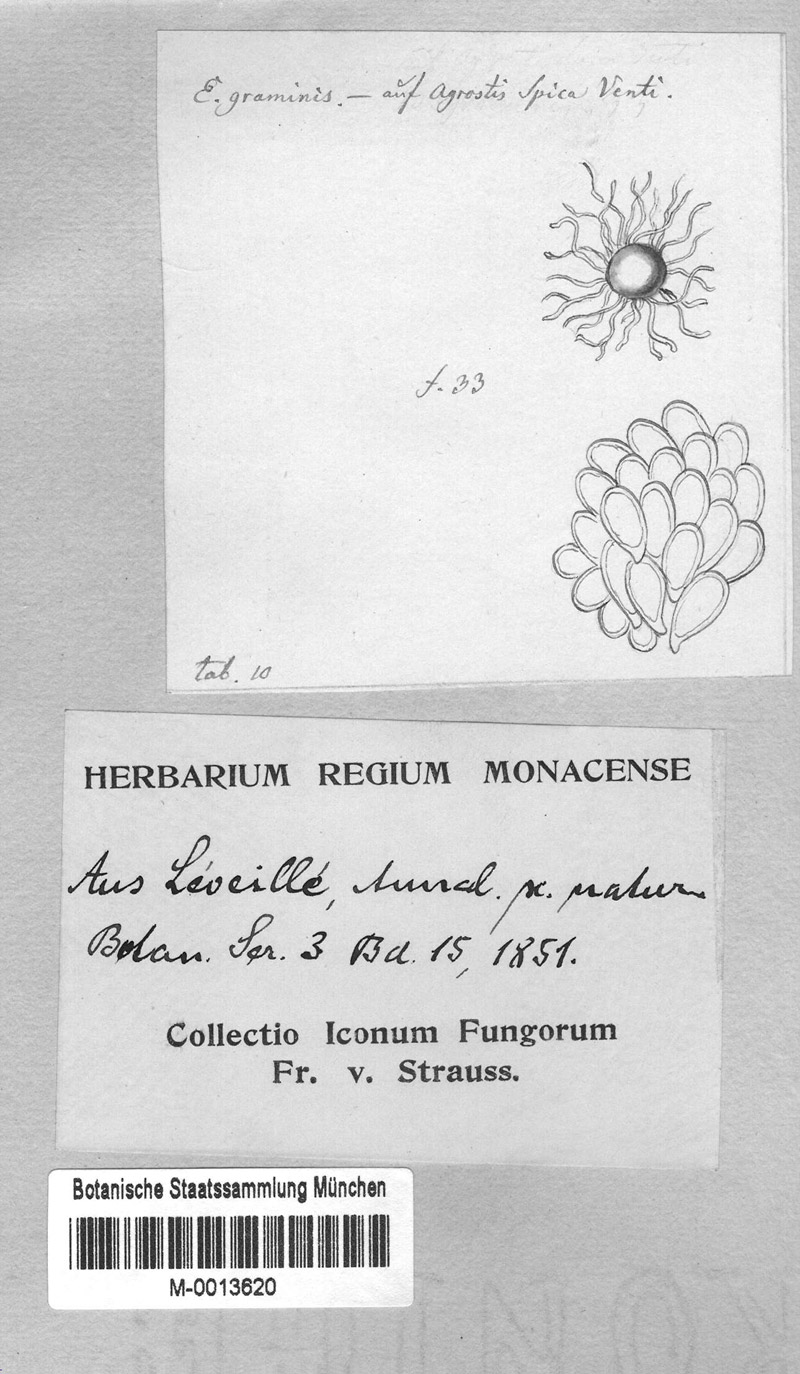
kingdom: Fungi
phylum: Ascomycota
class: Leotiomycetes
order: Helotiales
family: Erysiphaceae
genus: Blumeria
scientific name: Blumeria graminis
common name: Grass and cereal powdery mildew
